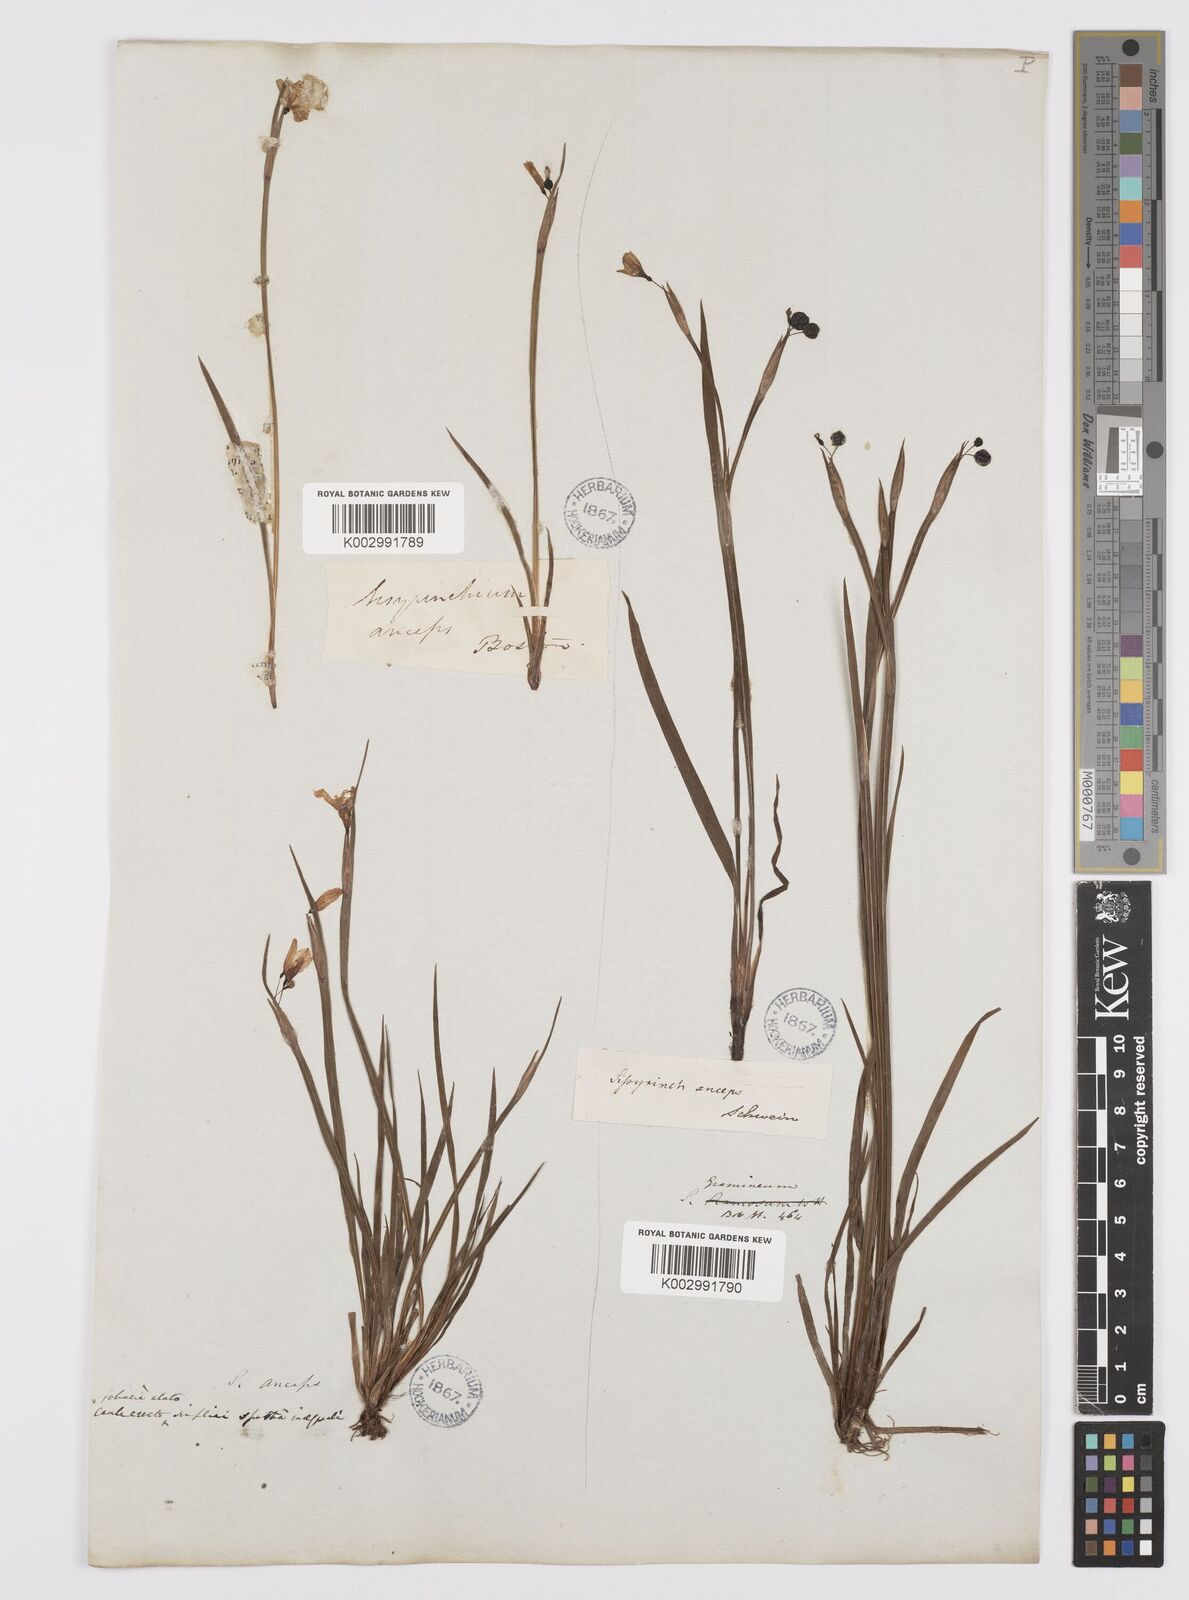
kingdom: Plantae
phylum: Tracheophyta
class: Liliopsida
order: Asparagales
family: Iridaceae
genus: Sisyrinchium
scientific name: Sisyrinchium bermudiana
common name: Blue-eyed-grass
